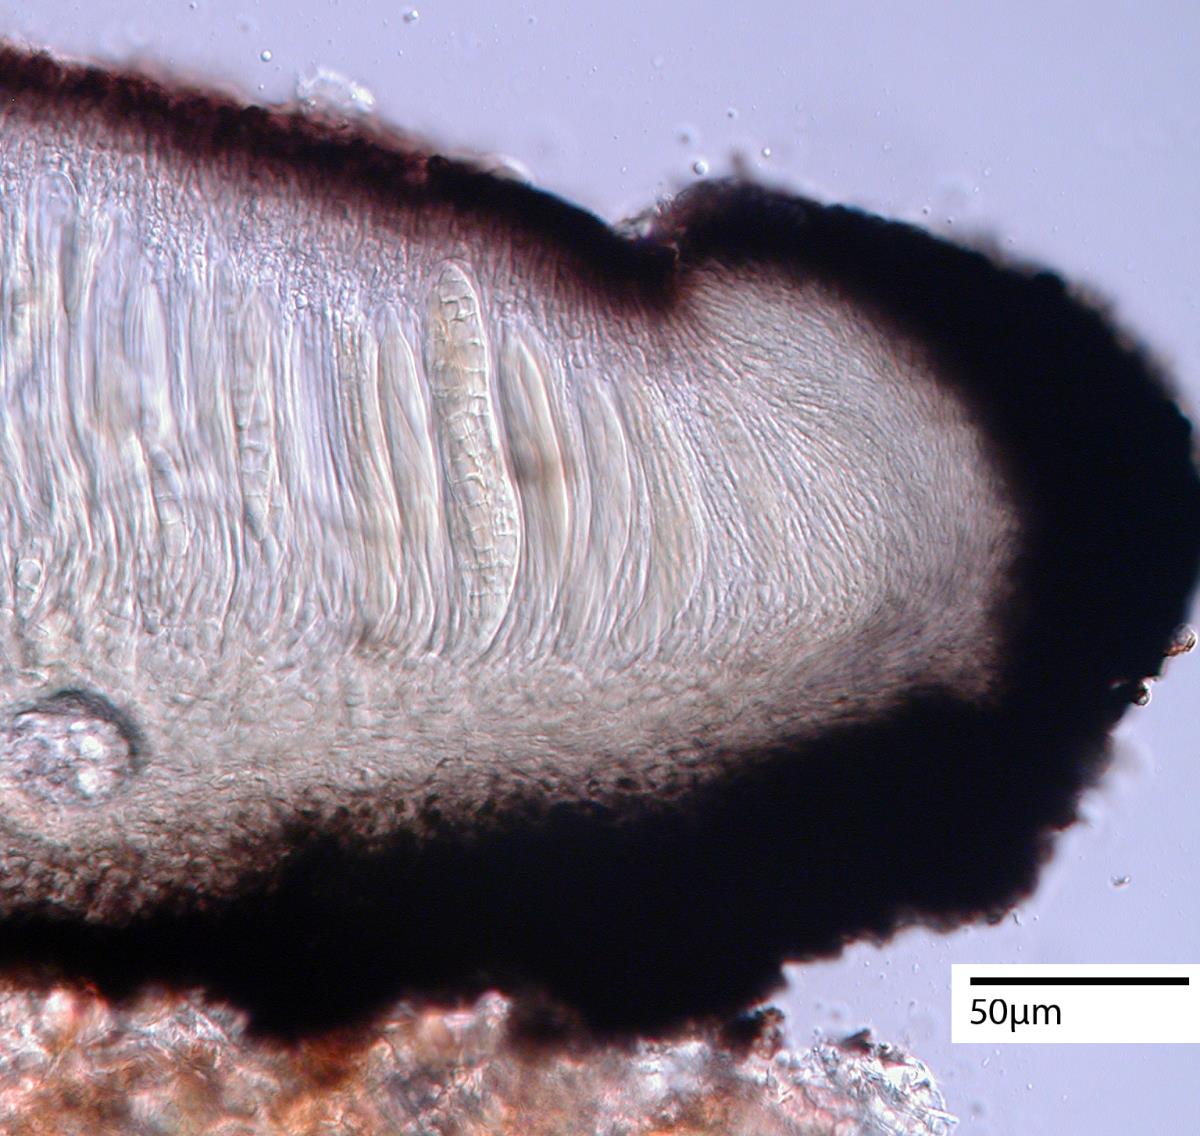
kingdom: Fungi
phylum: Ascomycota
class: Dothideomycetes
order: Patellariales
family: Patellariaceae
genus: Patellaria
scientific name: Patellaria atrata
